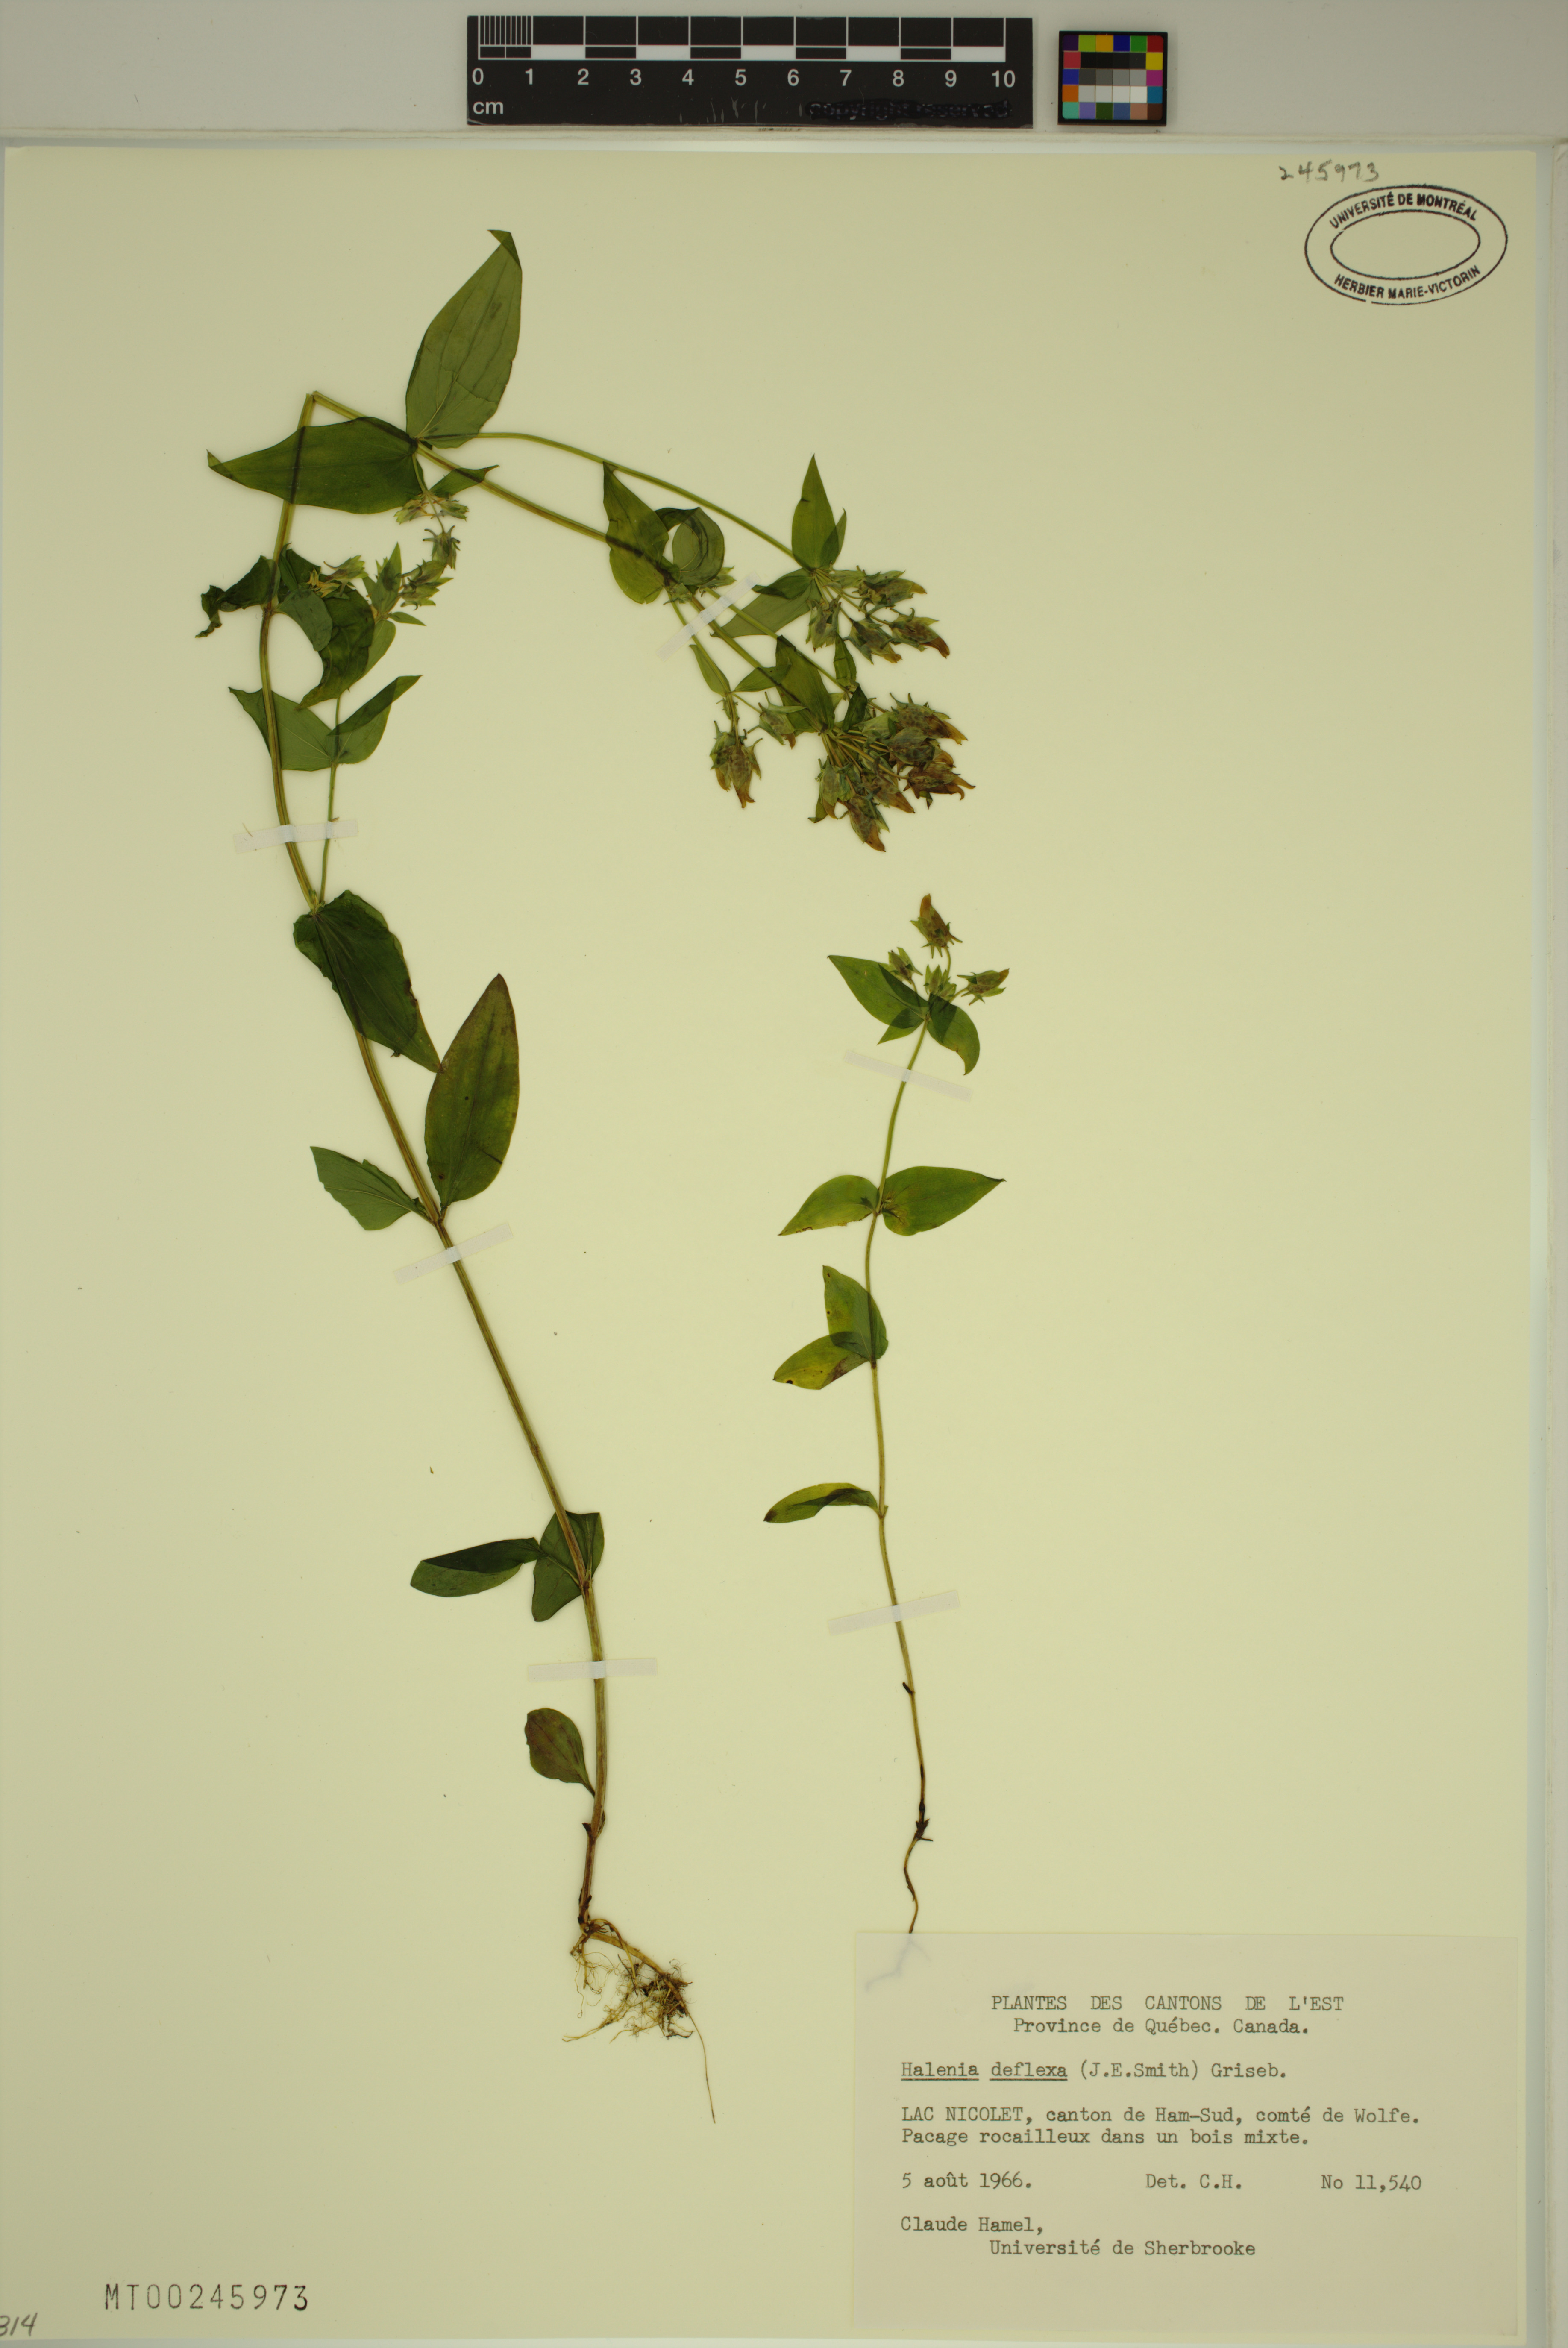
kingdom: Plantae
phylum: Tracheophyta
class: Magnoliopsida
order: Gentianales
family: Gentianaceae
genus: Halenia
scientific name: Halenia deflexa
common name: American spurred gentian
